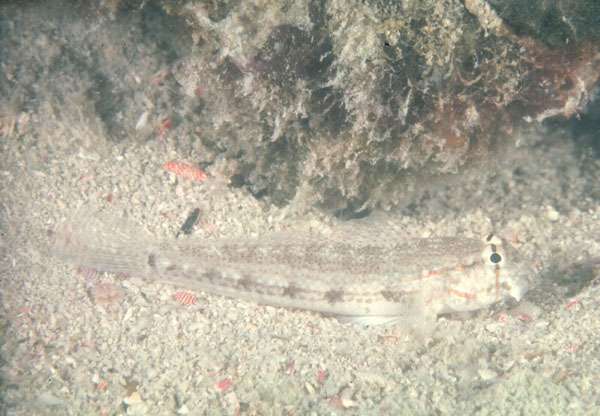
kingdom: Animalia
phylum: Chordata
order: Perciformes
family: Gobiidae
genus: Gnatholepis
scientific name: Gnatholepis anjerensis
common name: Anjer eye-bar goby
